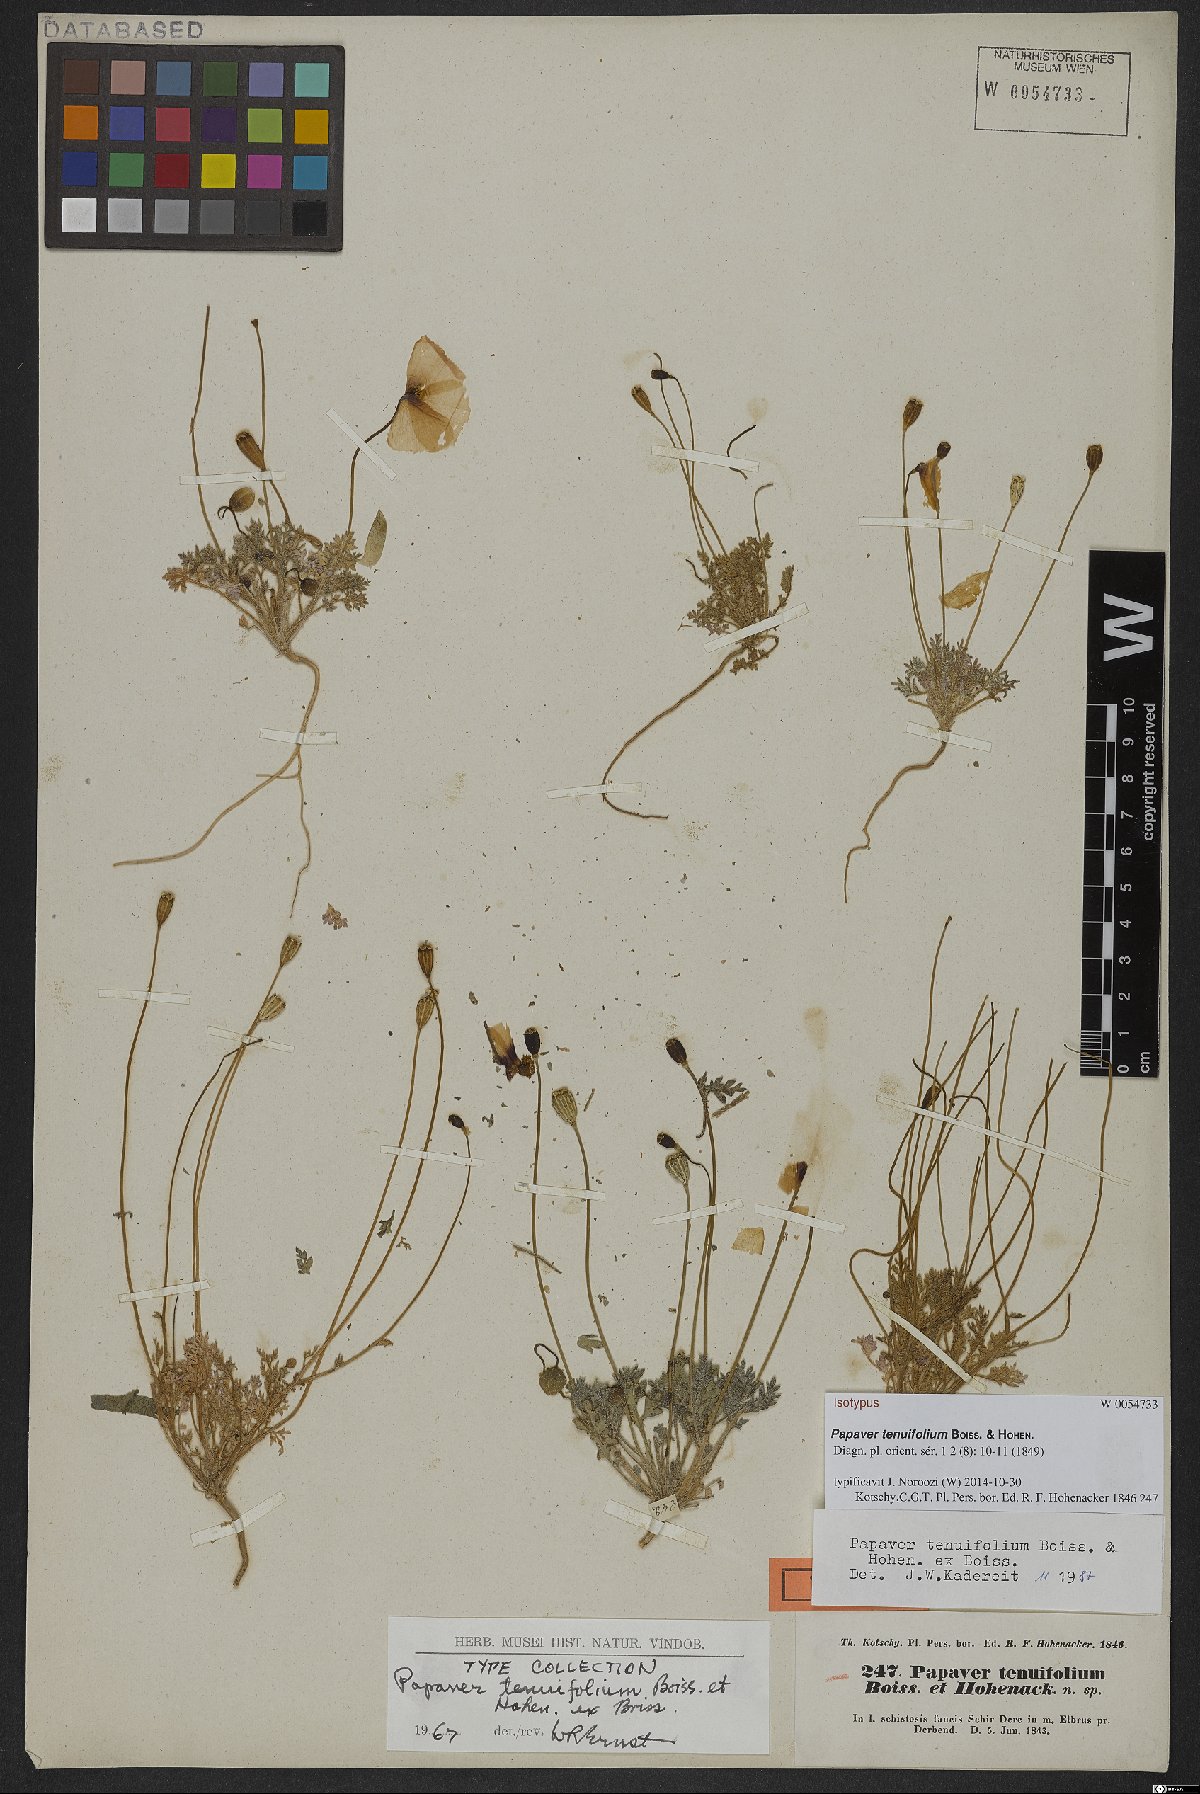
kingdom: Plantae
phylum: Tracheophyta
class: Magnoliopsida
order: Ranunculales
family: Papaveraceae
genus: Papaver
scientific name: Papaver tenuifolium
